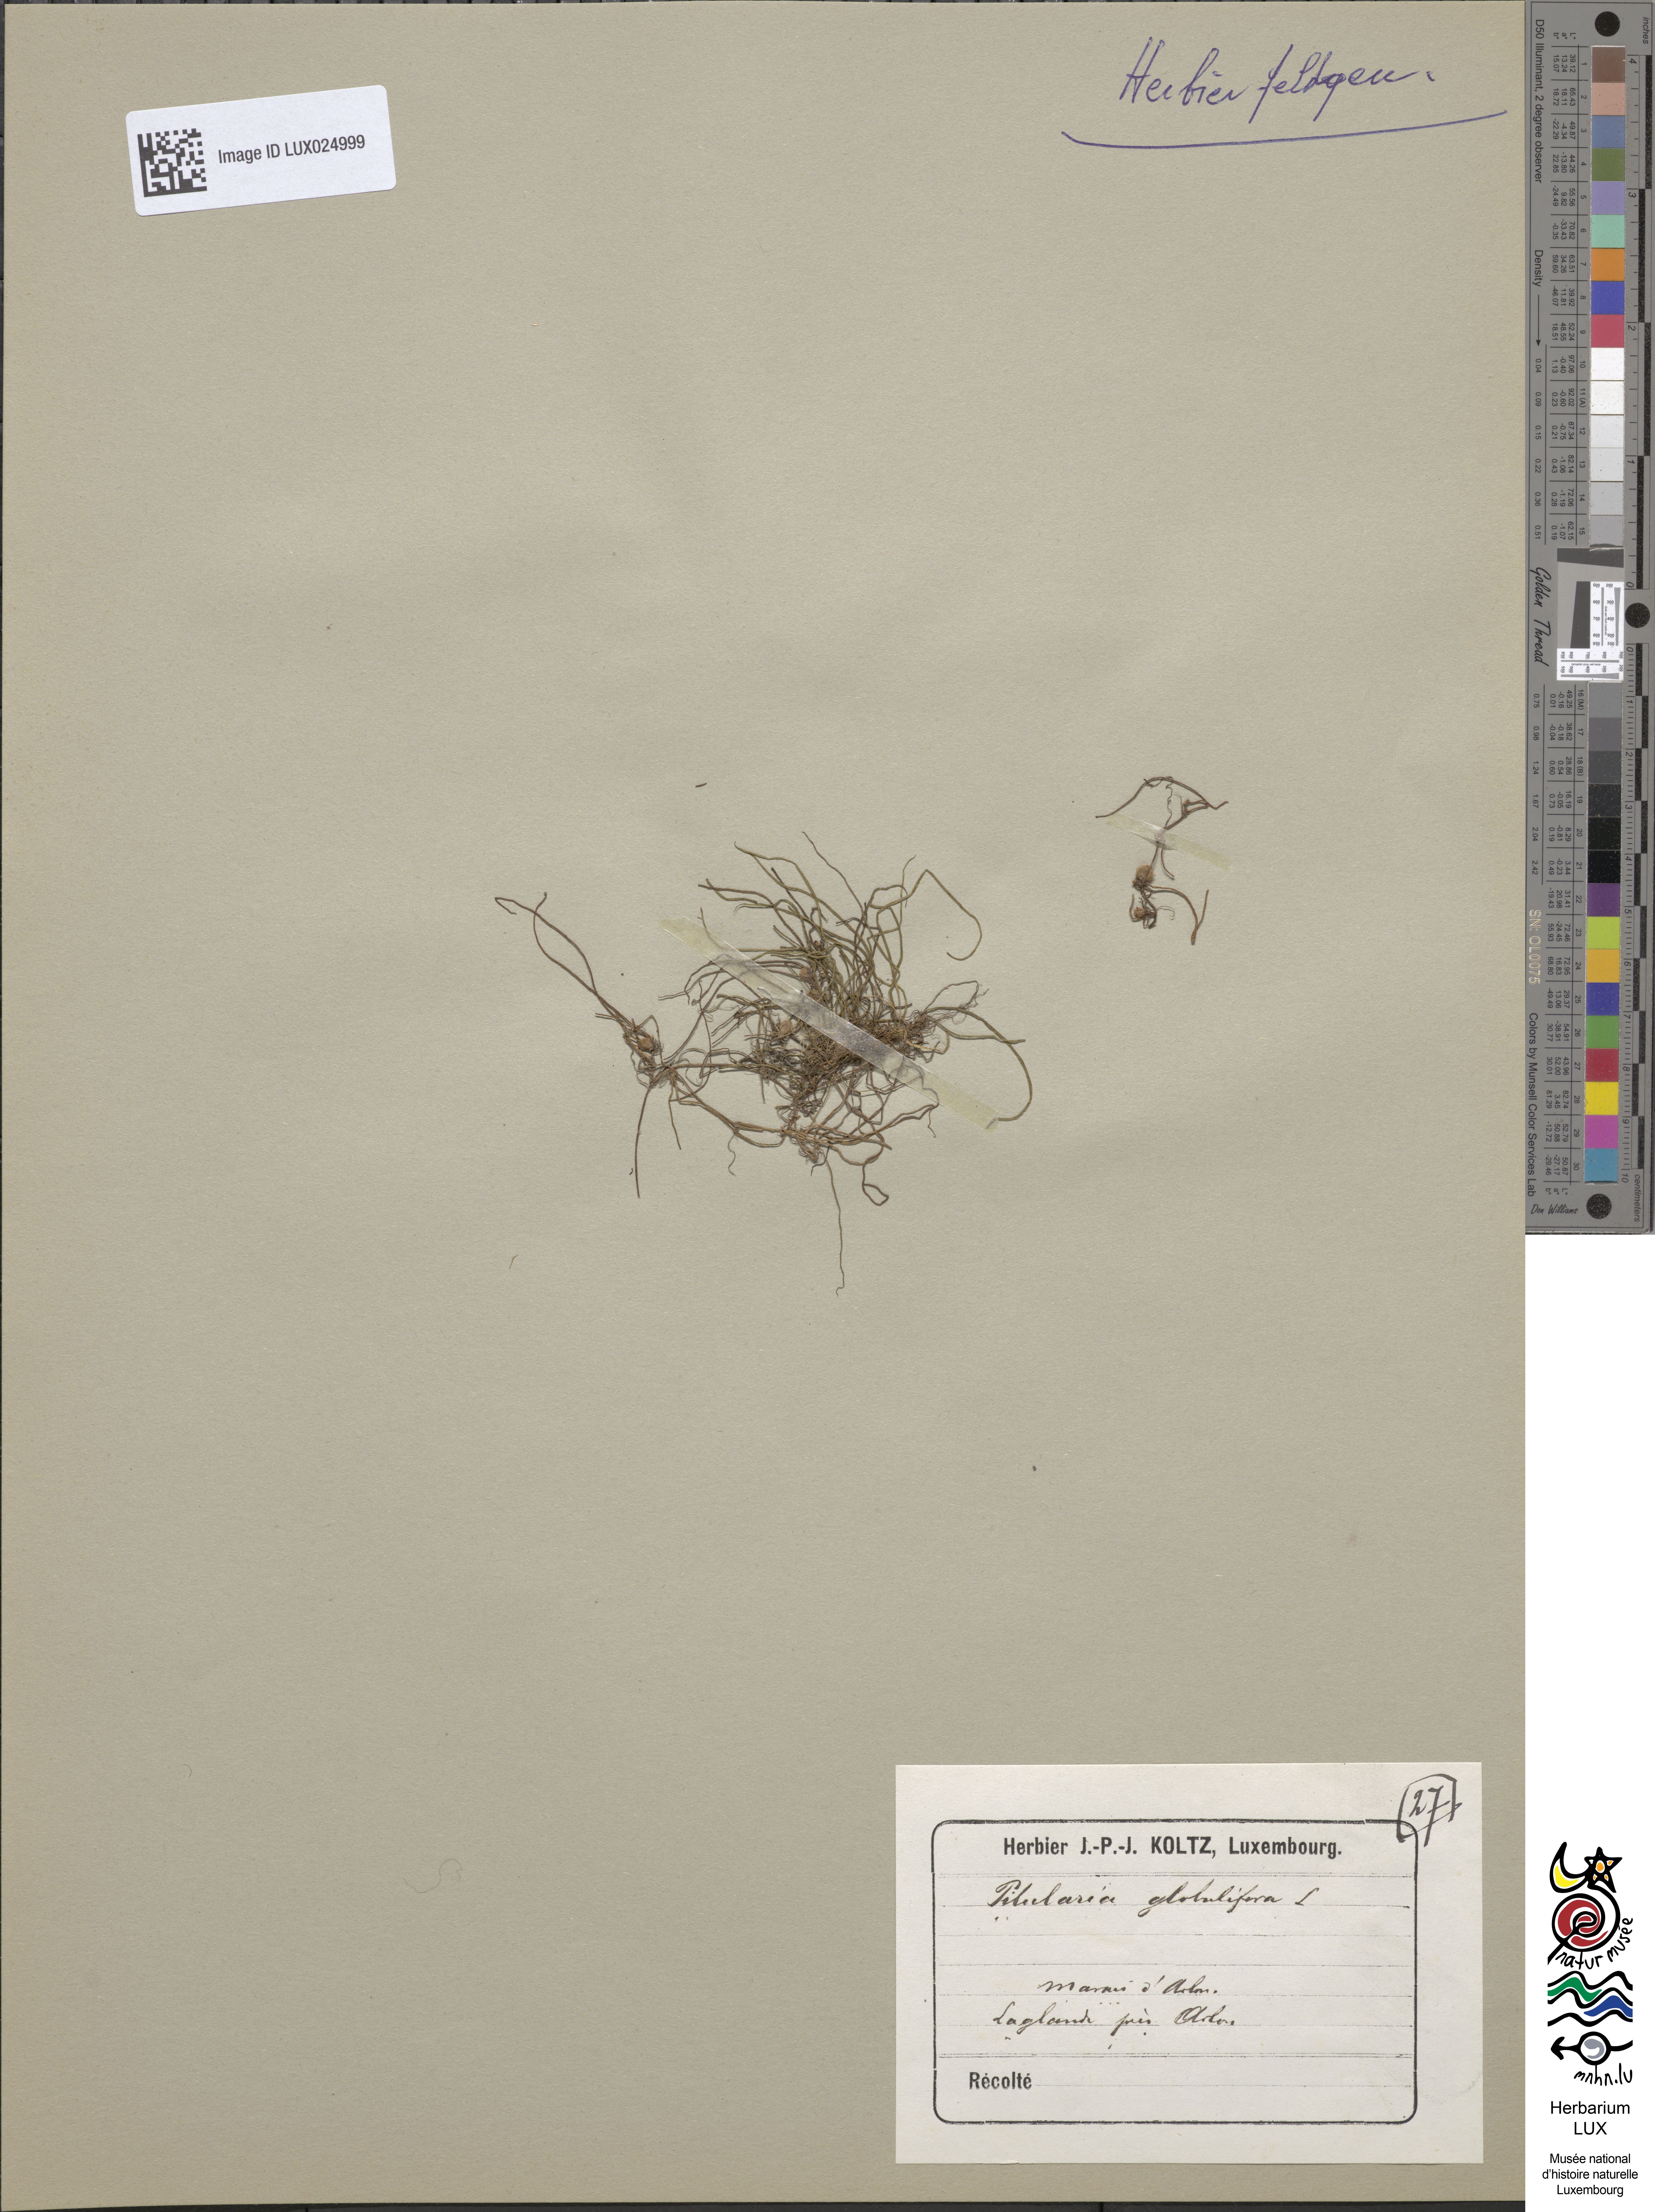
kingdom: Plantae
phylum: Tracheophyta
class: Polypodiopsida
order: Salviniales
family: Marsileaceae
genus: Pilularia
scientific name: Pilularia globulifera
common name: Pillwort
